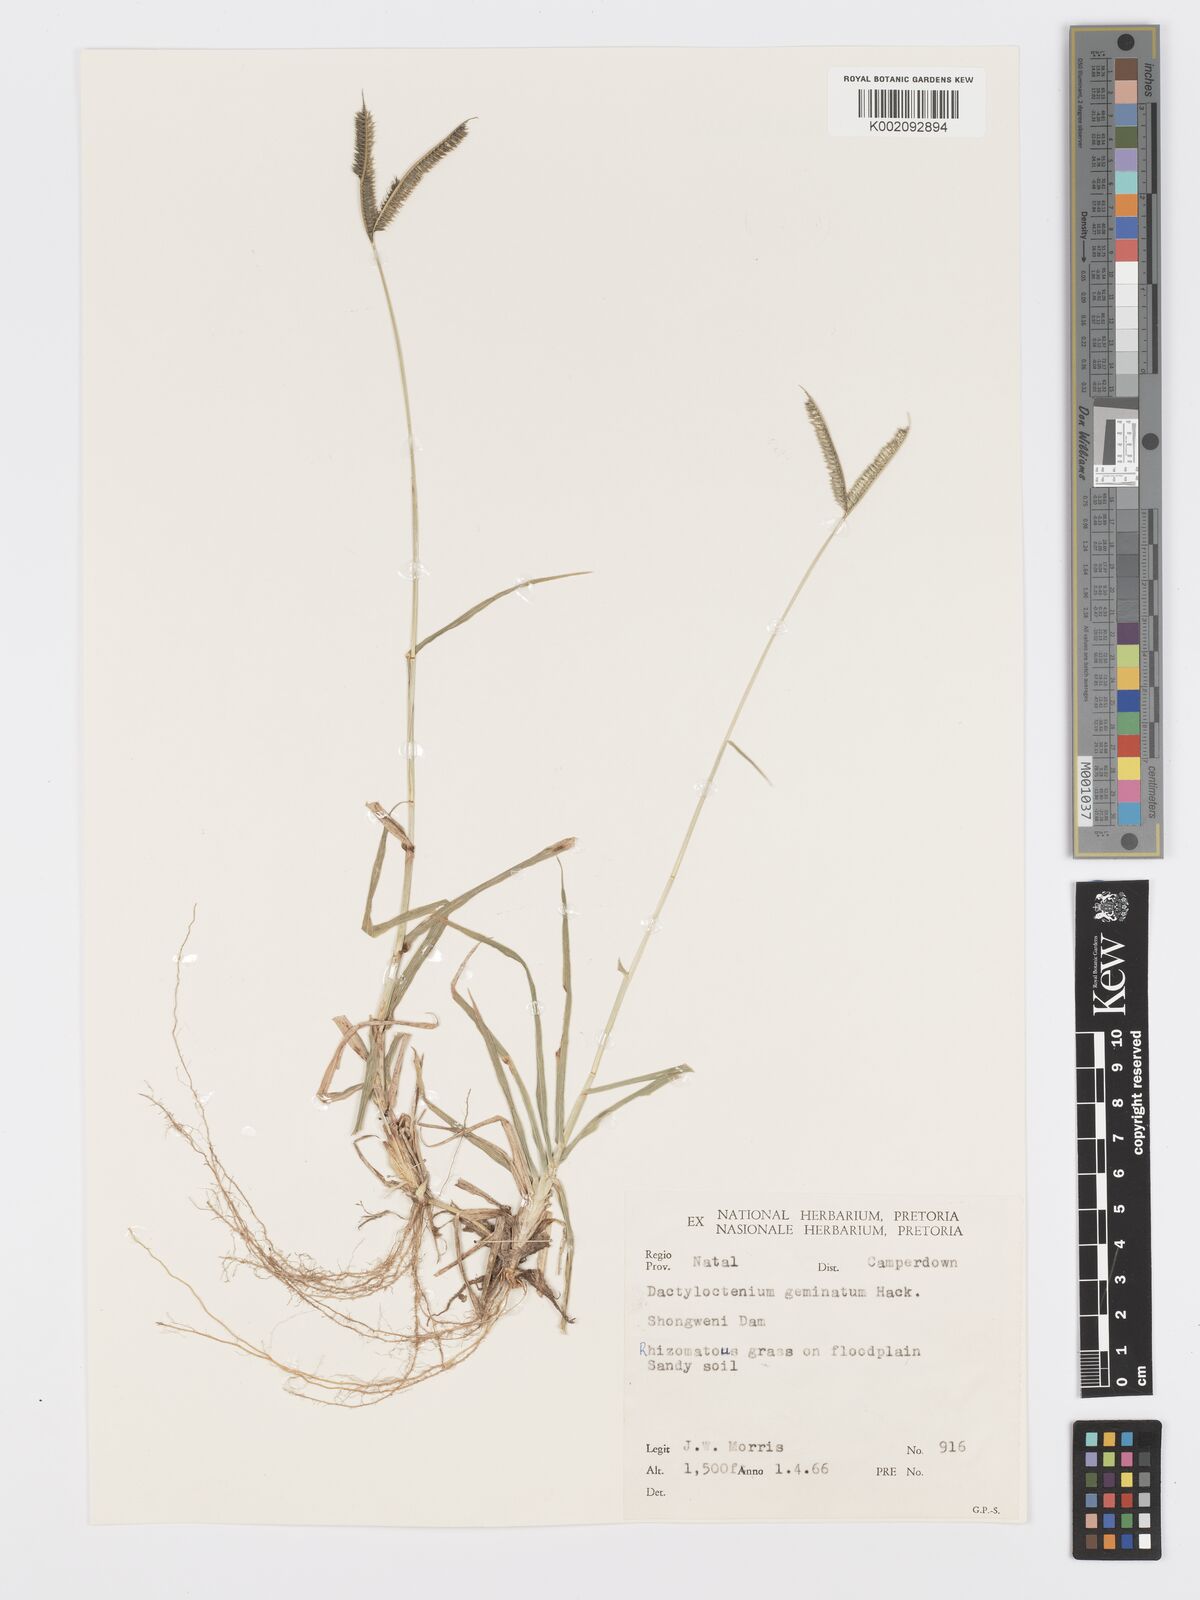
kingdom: Plantae
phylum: Tracheophyta
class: Liliopsida
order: Poales
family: Poaceae
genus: Dactyloctenium
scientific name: Dactyloctenium australe
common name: Durban grass
